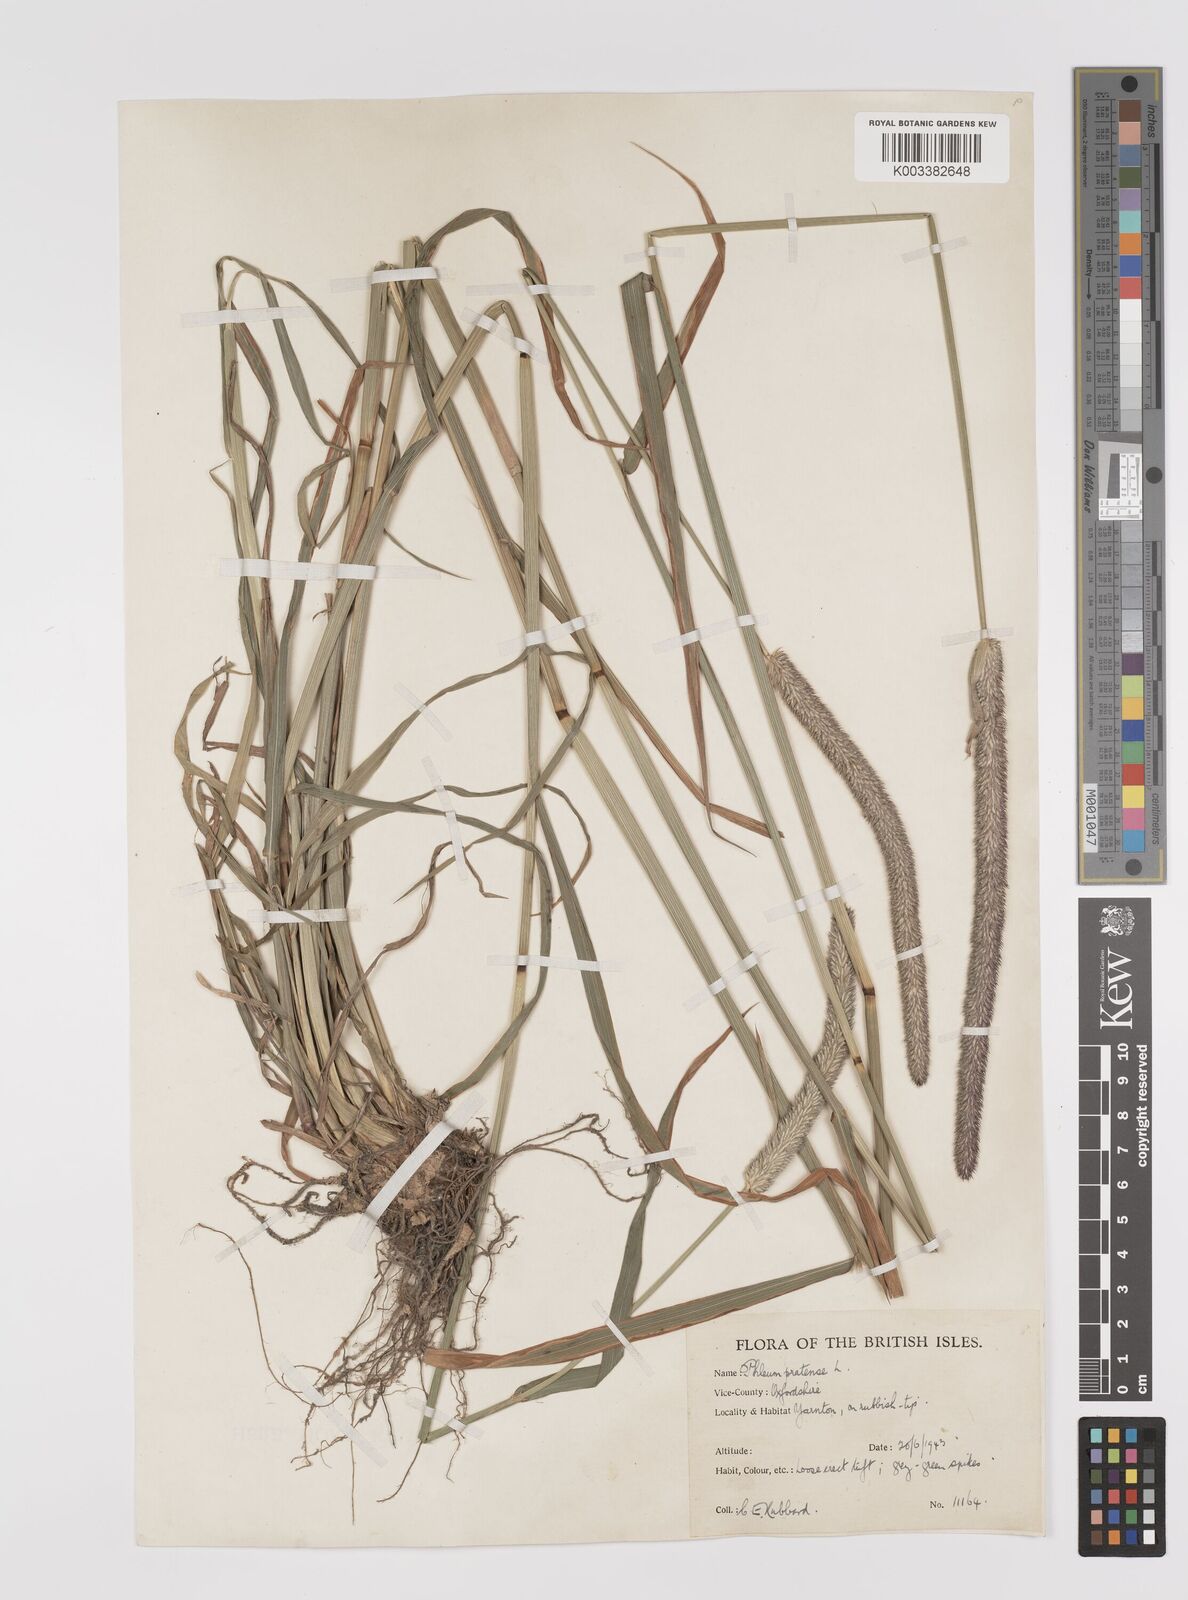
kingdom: Plantae
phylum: Tracheophyta
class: Liliopsida
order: Poales
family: Poaceae
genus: Phleum
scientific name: Phleum pratense
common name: Timothy grass
